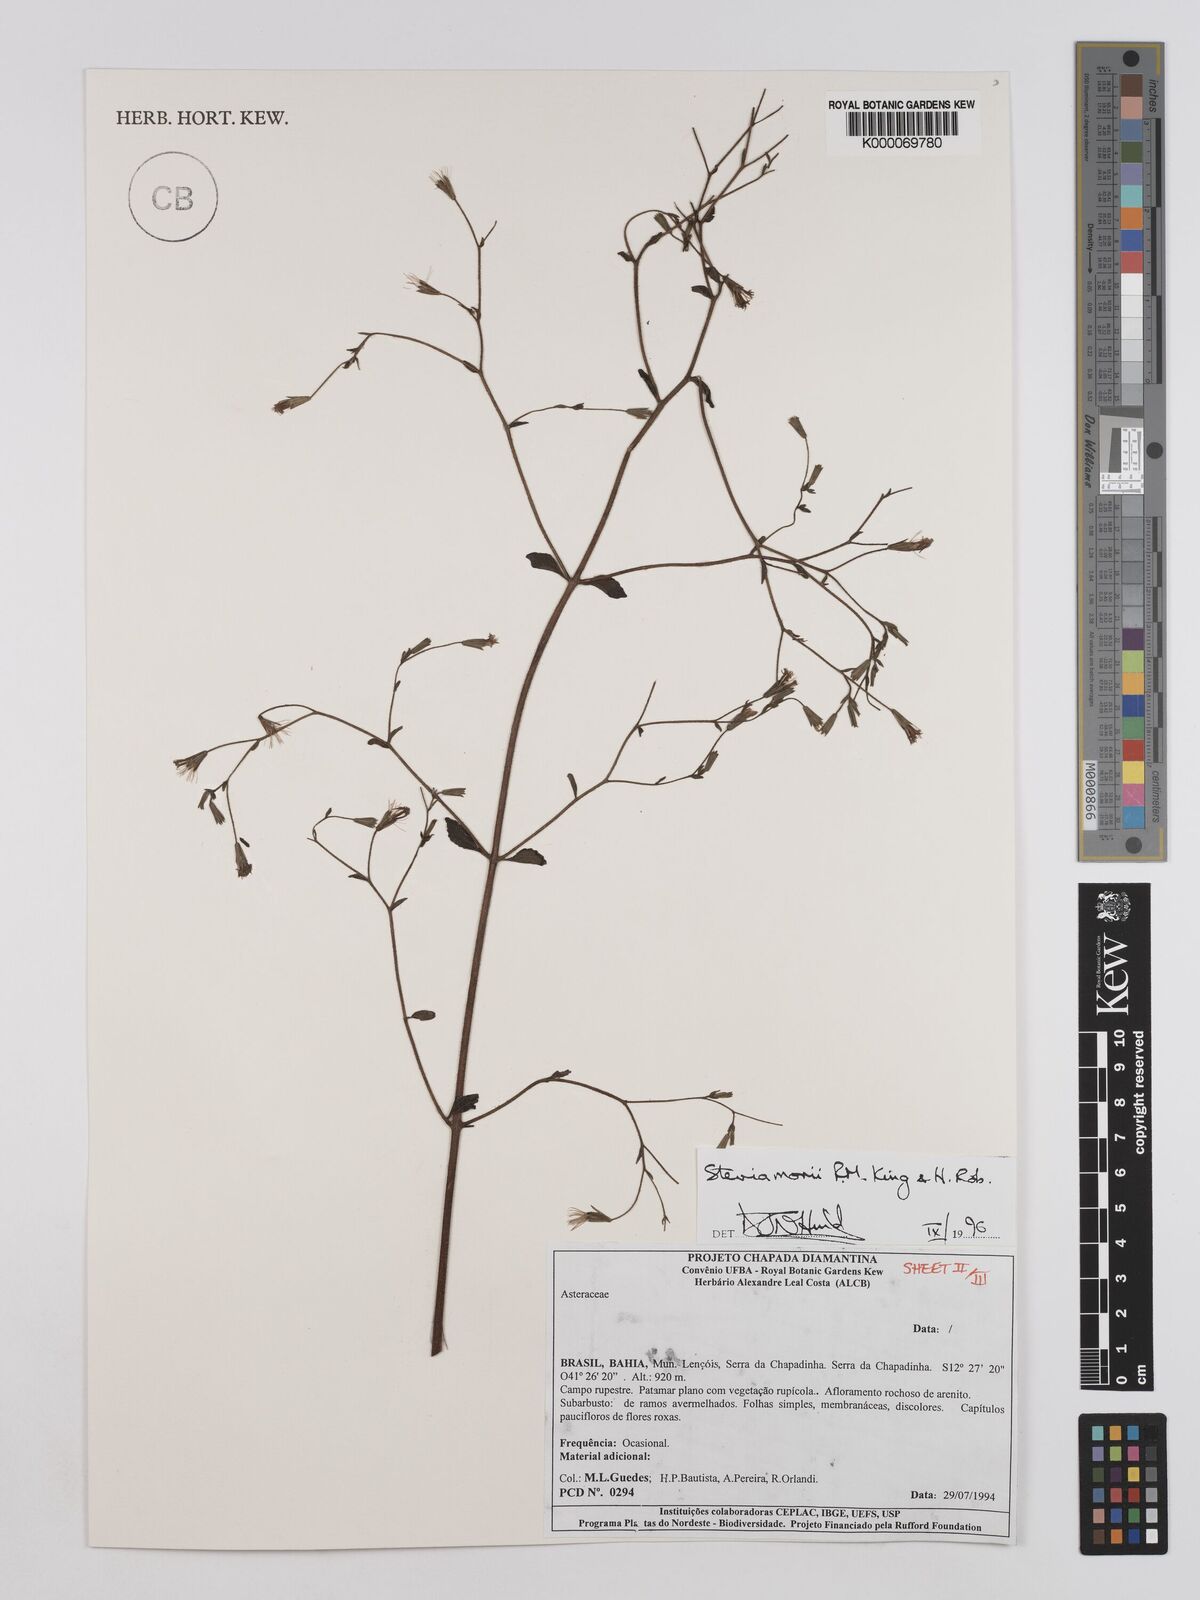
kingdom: Plantae
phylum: Tracheophyta
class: Magnoliopsida
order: Asterales
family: Asteraceae
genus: Stevia
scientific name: Stevia morii
